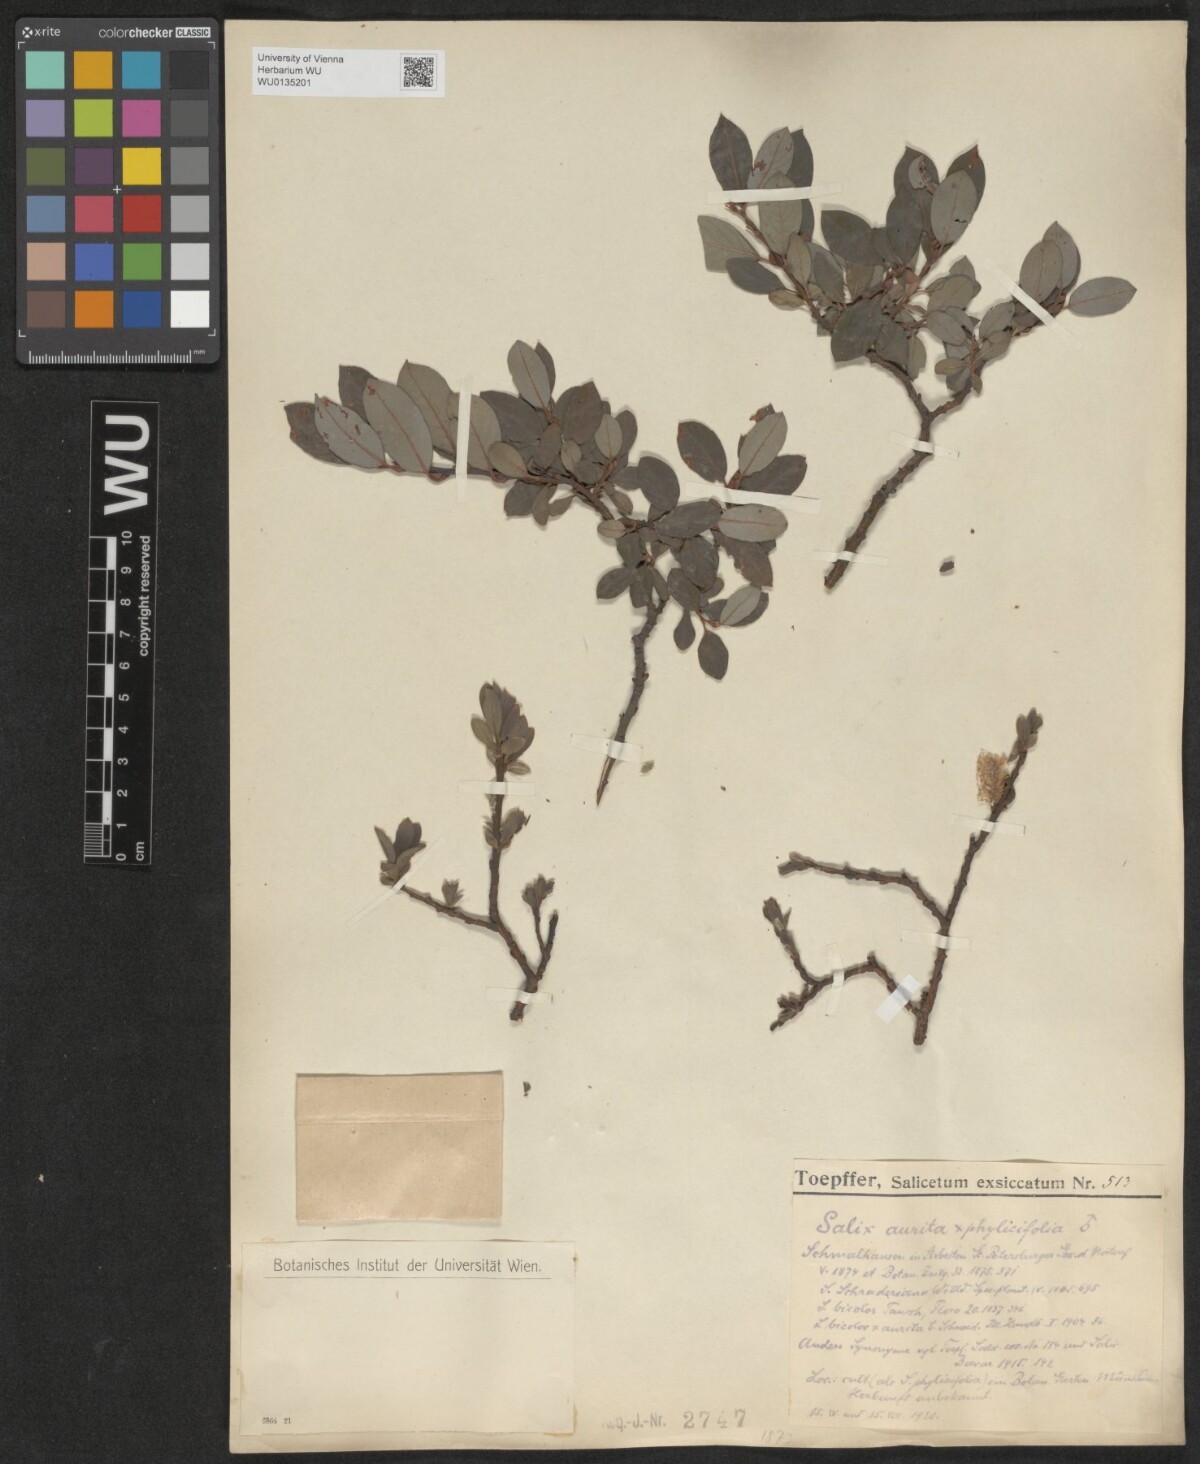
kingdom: Plantae
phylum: Tracheophyta
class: Magnoliopsida
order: Malpighiales
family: Salicaceae
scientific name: Salicaceae
